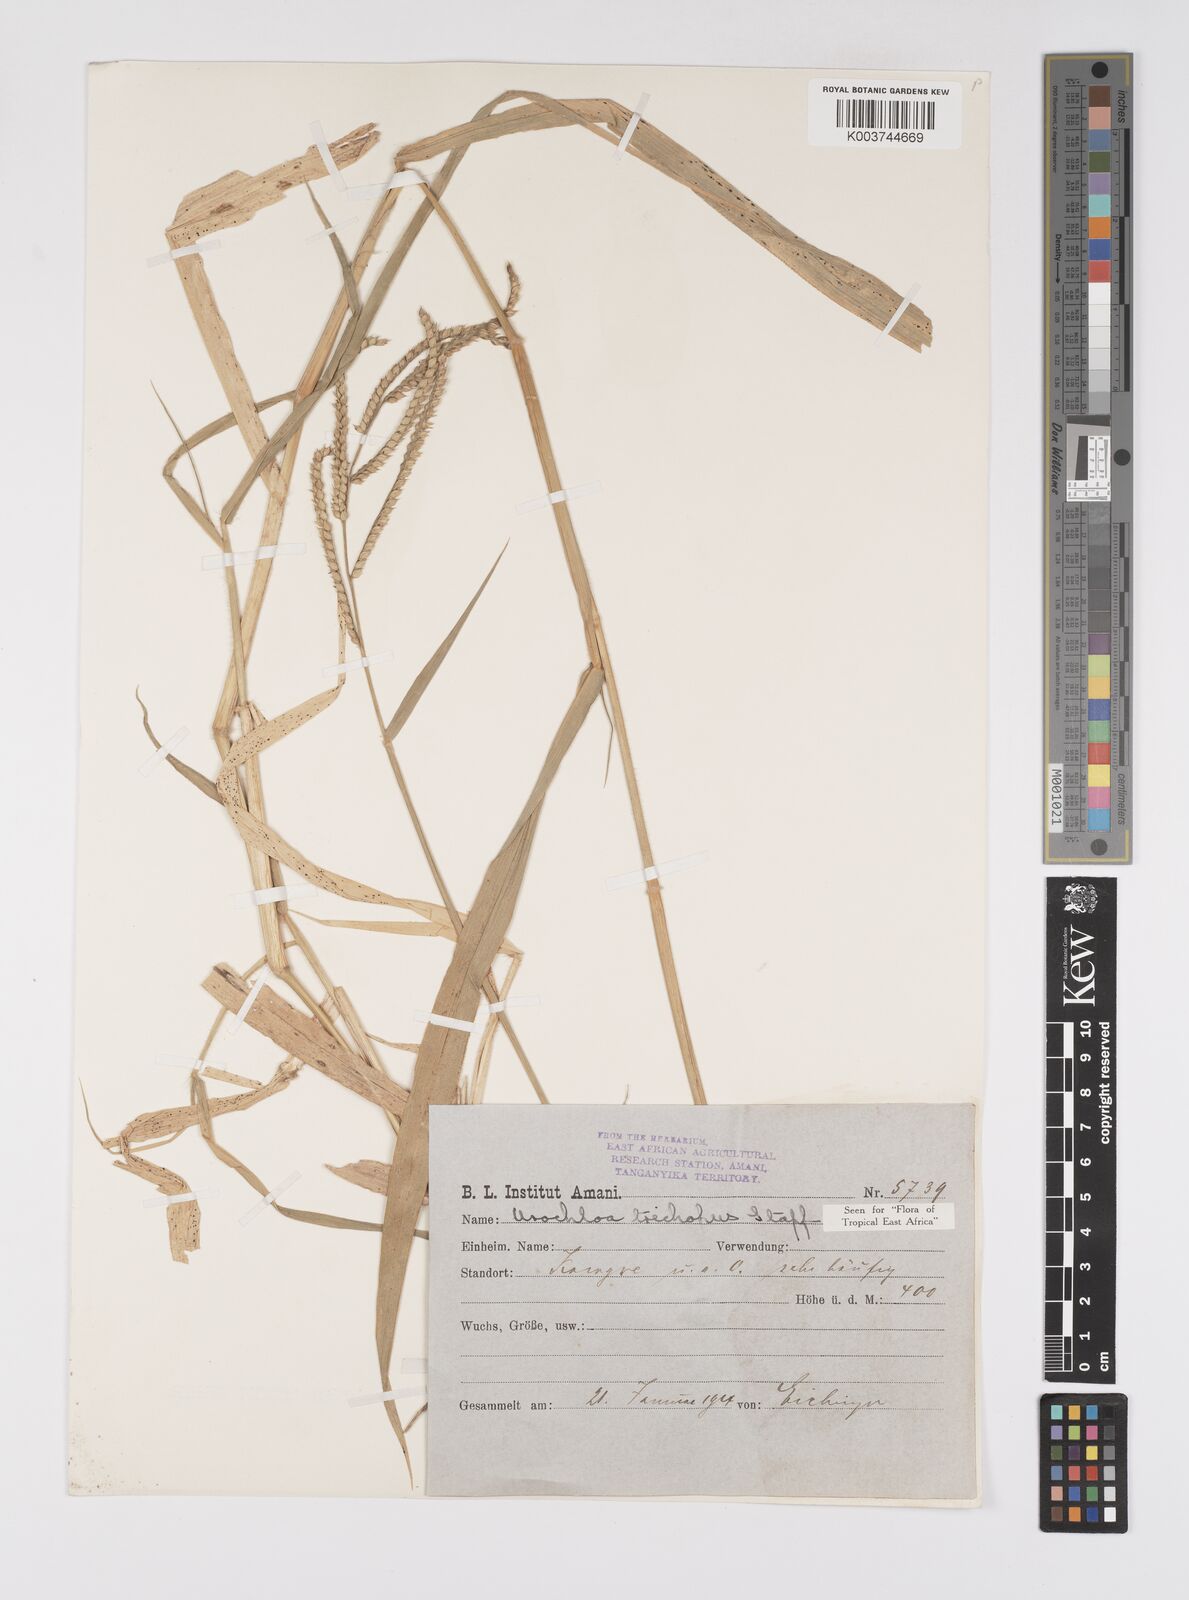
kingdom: Plantae
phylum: Tracheophyta
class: Liliopsida
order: Poales
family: Poaceae
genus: Urochloa
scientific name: Urochloa trichopus
